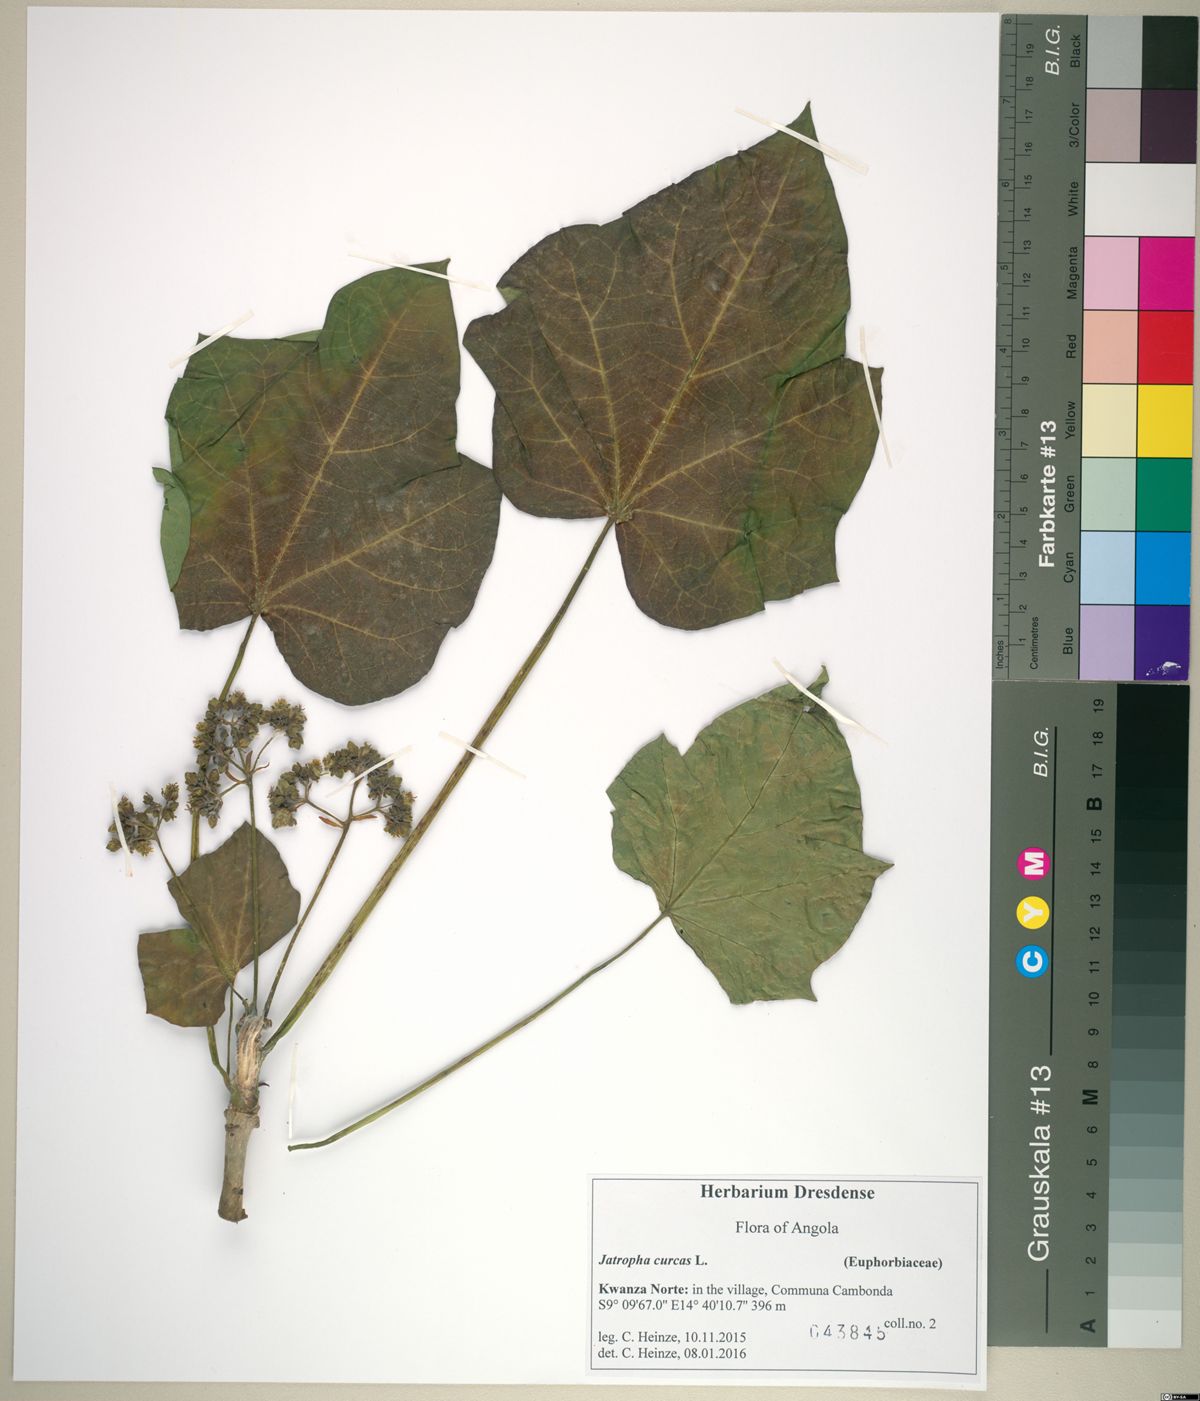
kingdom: Plantae
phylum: Tracheophyta
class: Magnoliopsida
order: Malpighiales
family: Euphorbiaceae
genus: Jatropha
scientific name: Jatropha curcas
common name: Barbados nut
